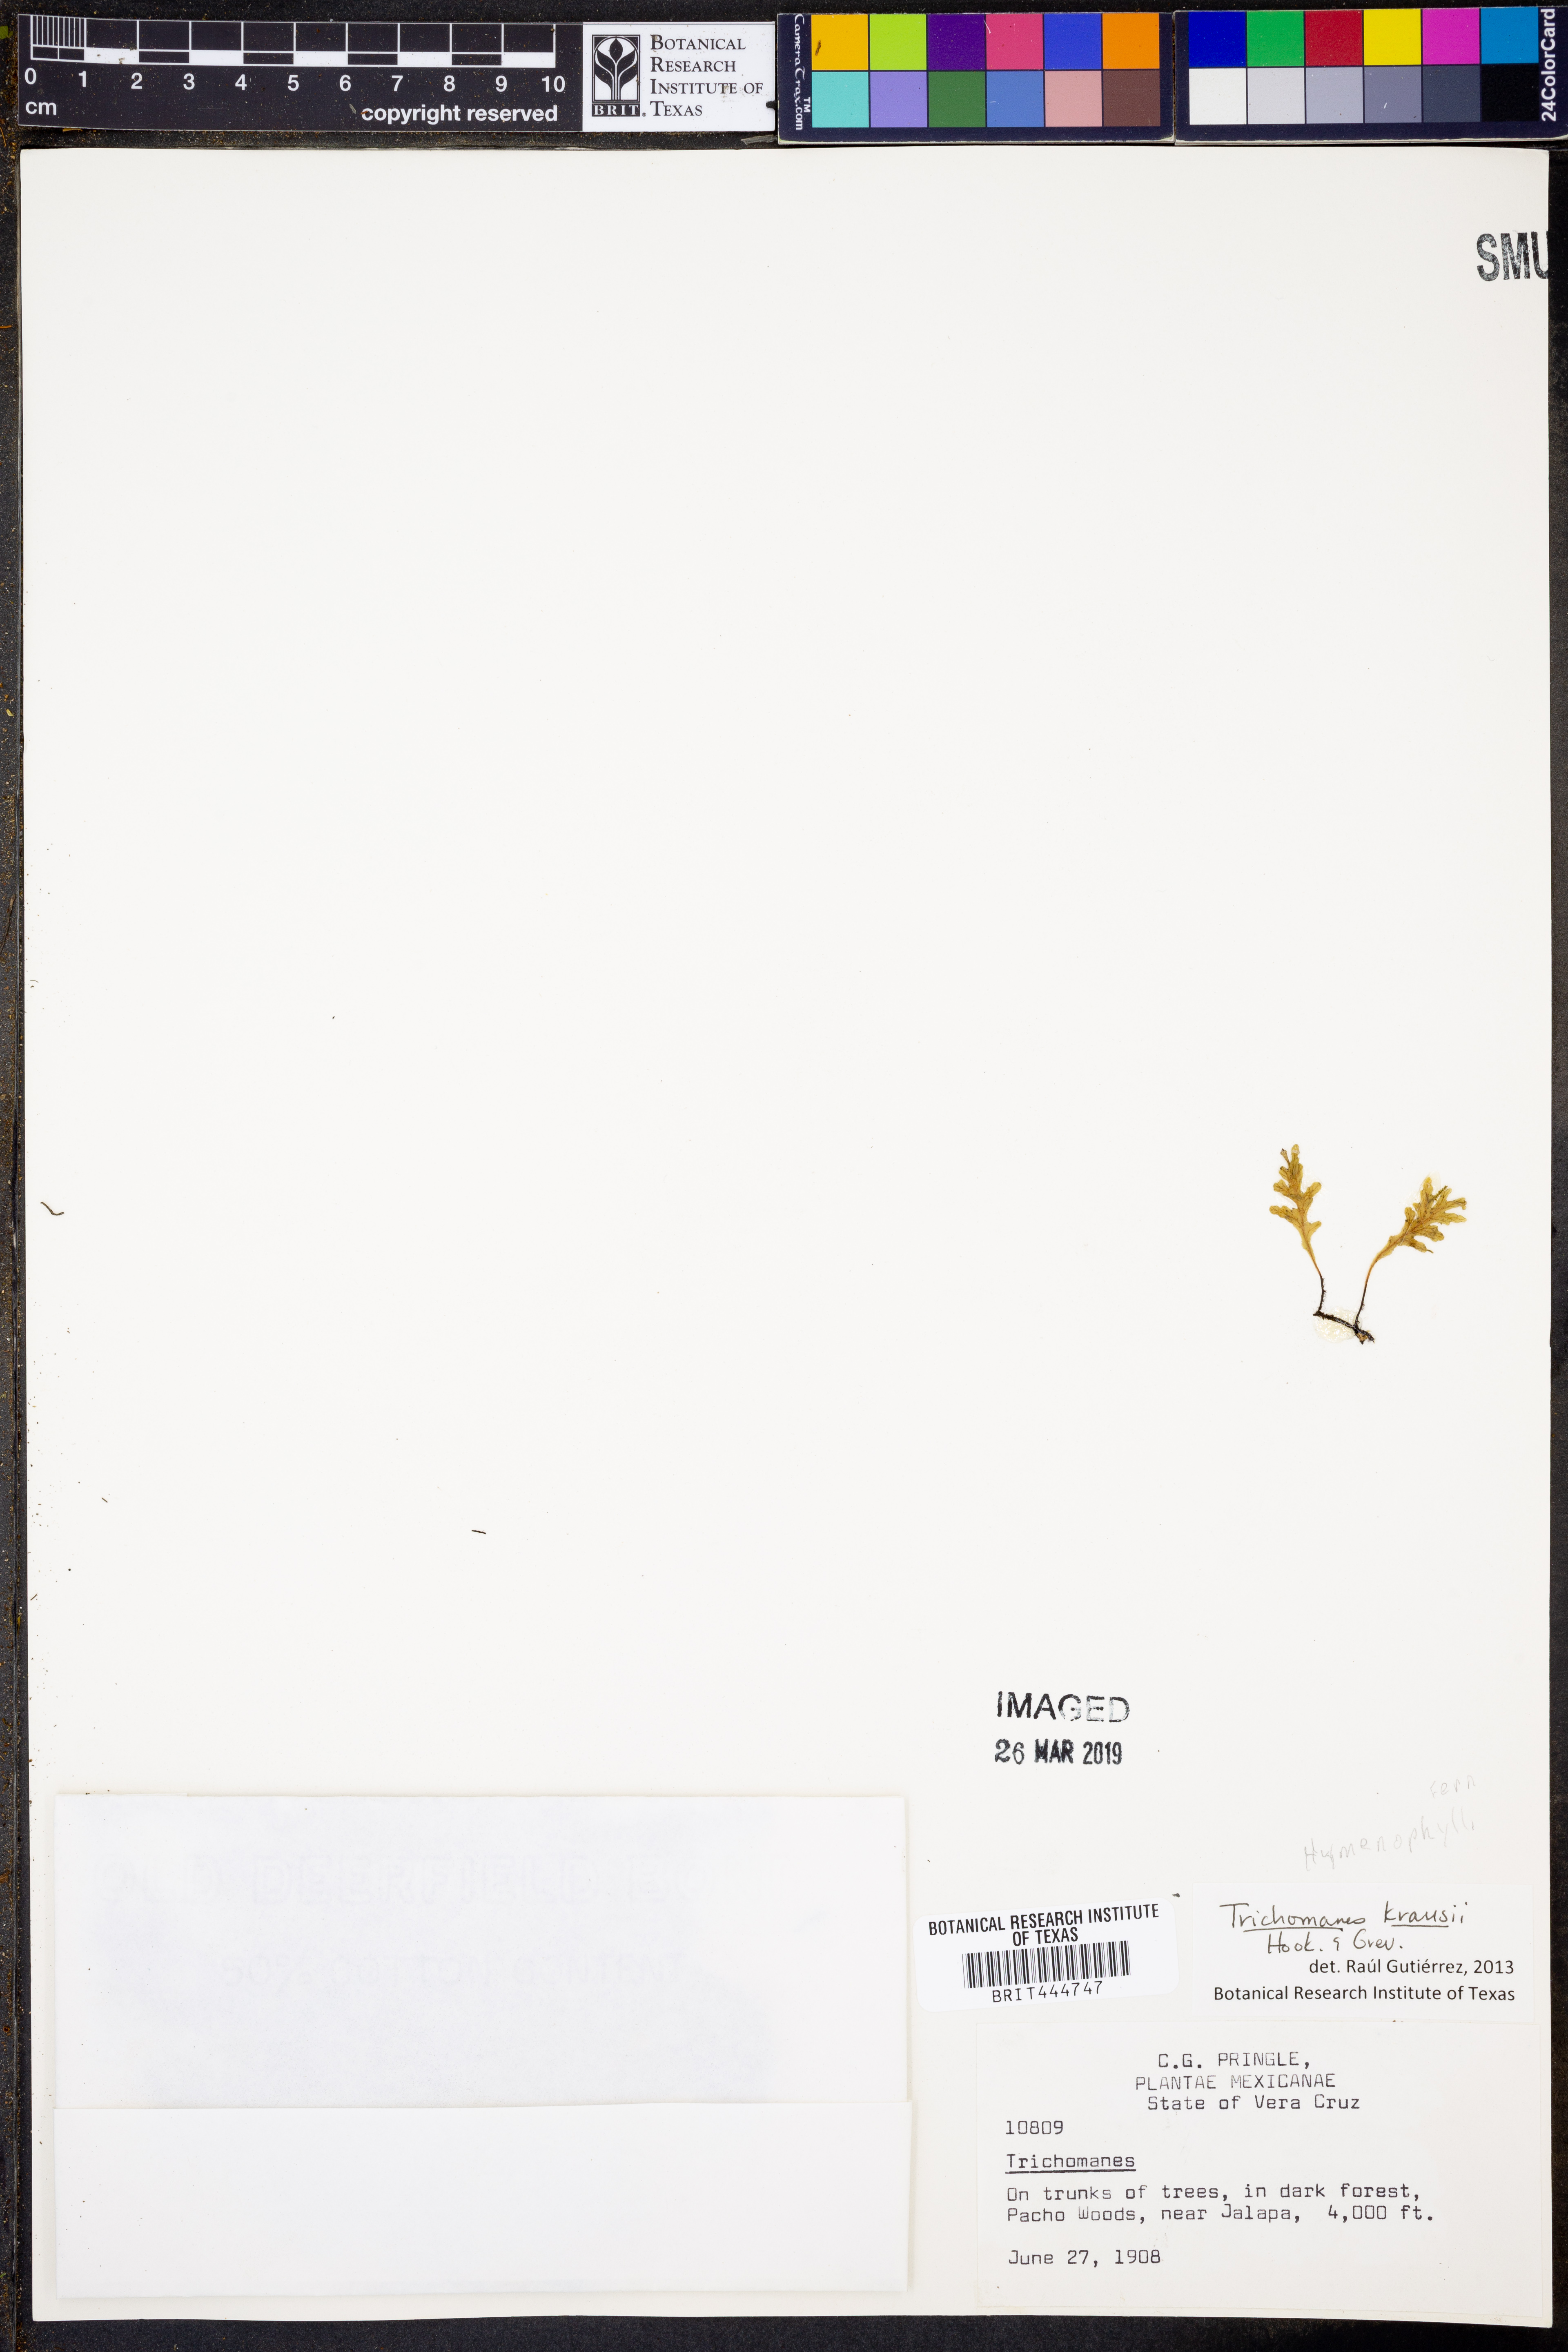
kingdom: Plantae
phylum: Tracheophyta
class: Polypodiopsida
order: Hymenophyllales
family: Hymenophyllaceae
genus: Didymoglossum
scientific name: Didymoglossum kraussii
